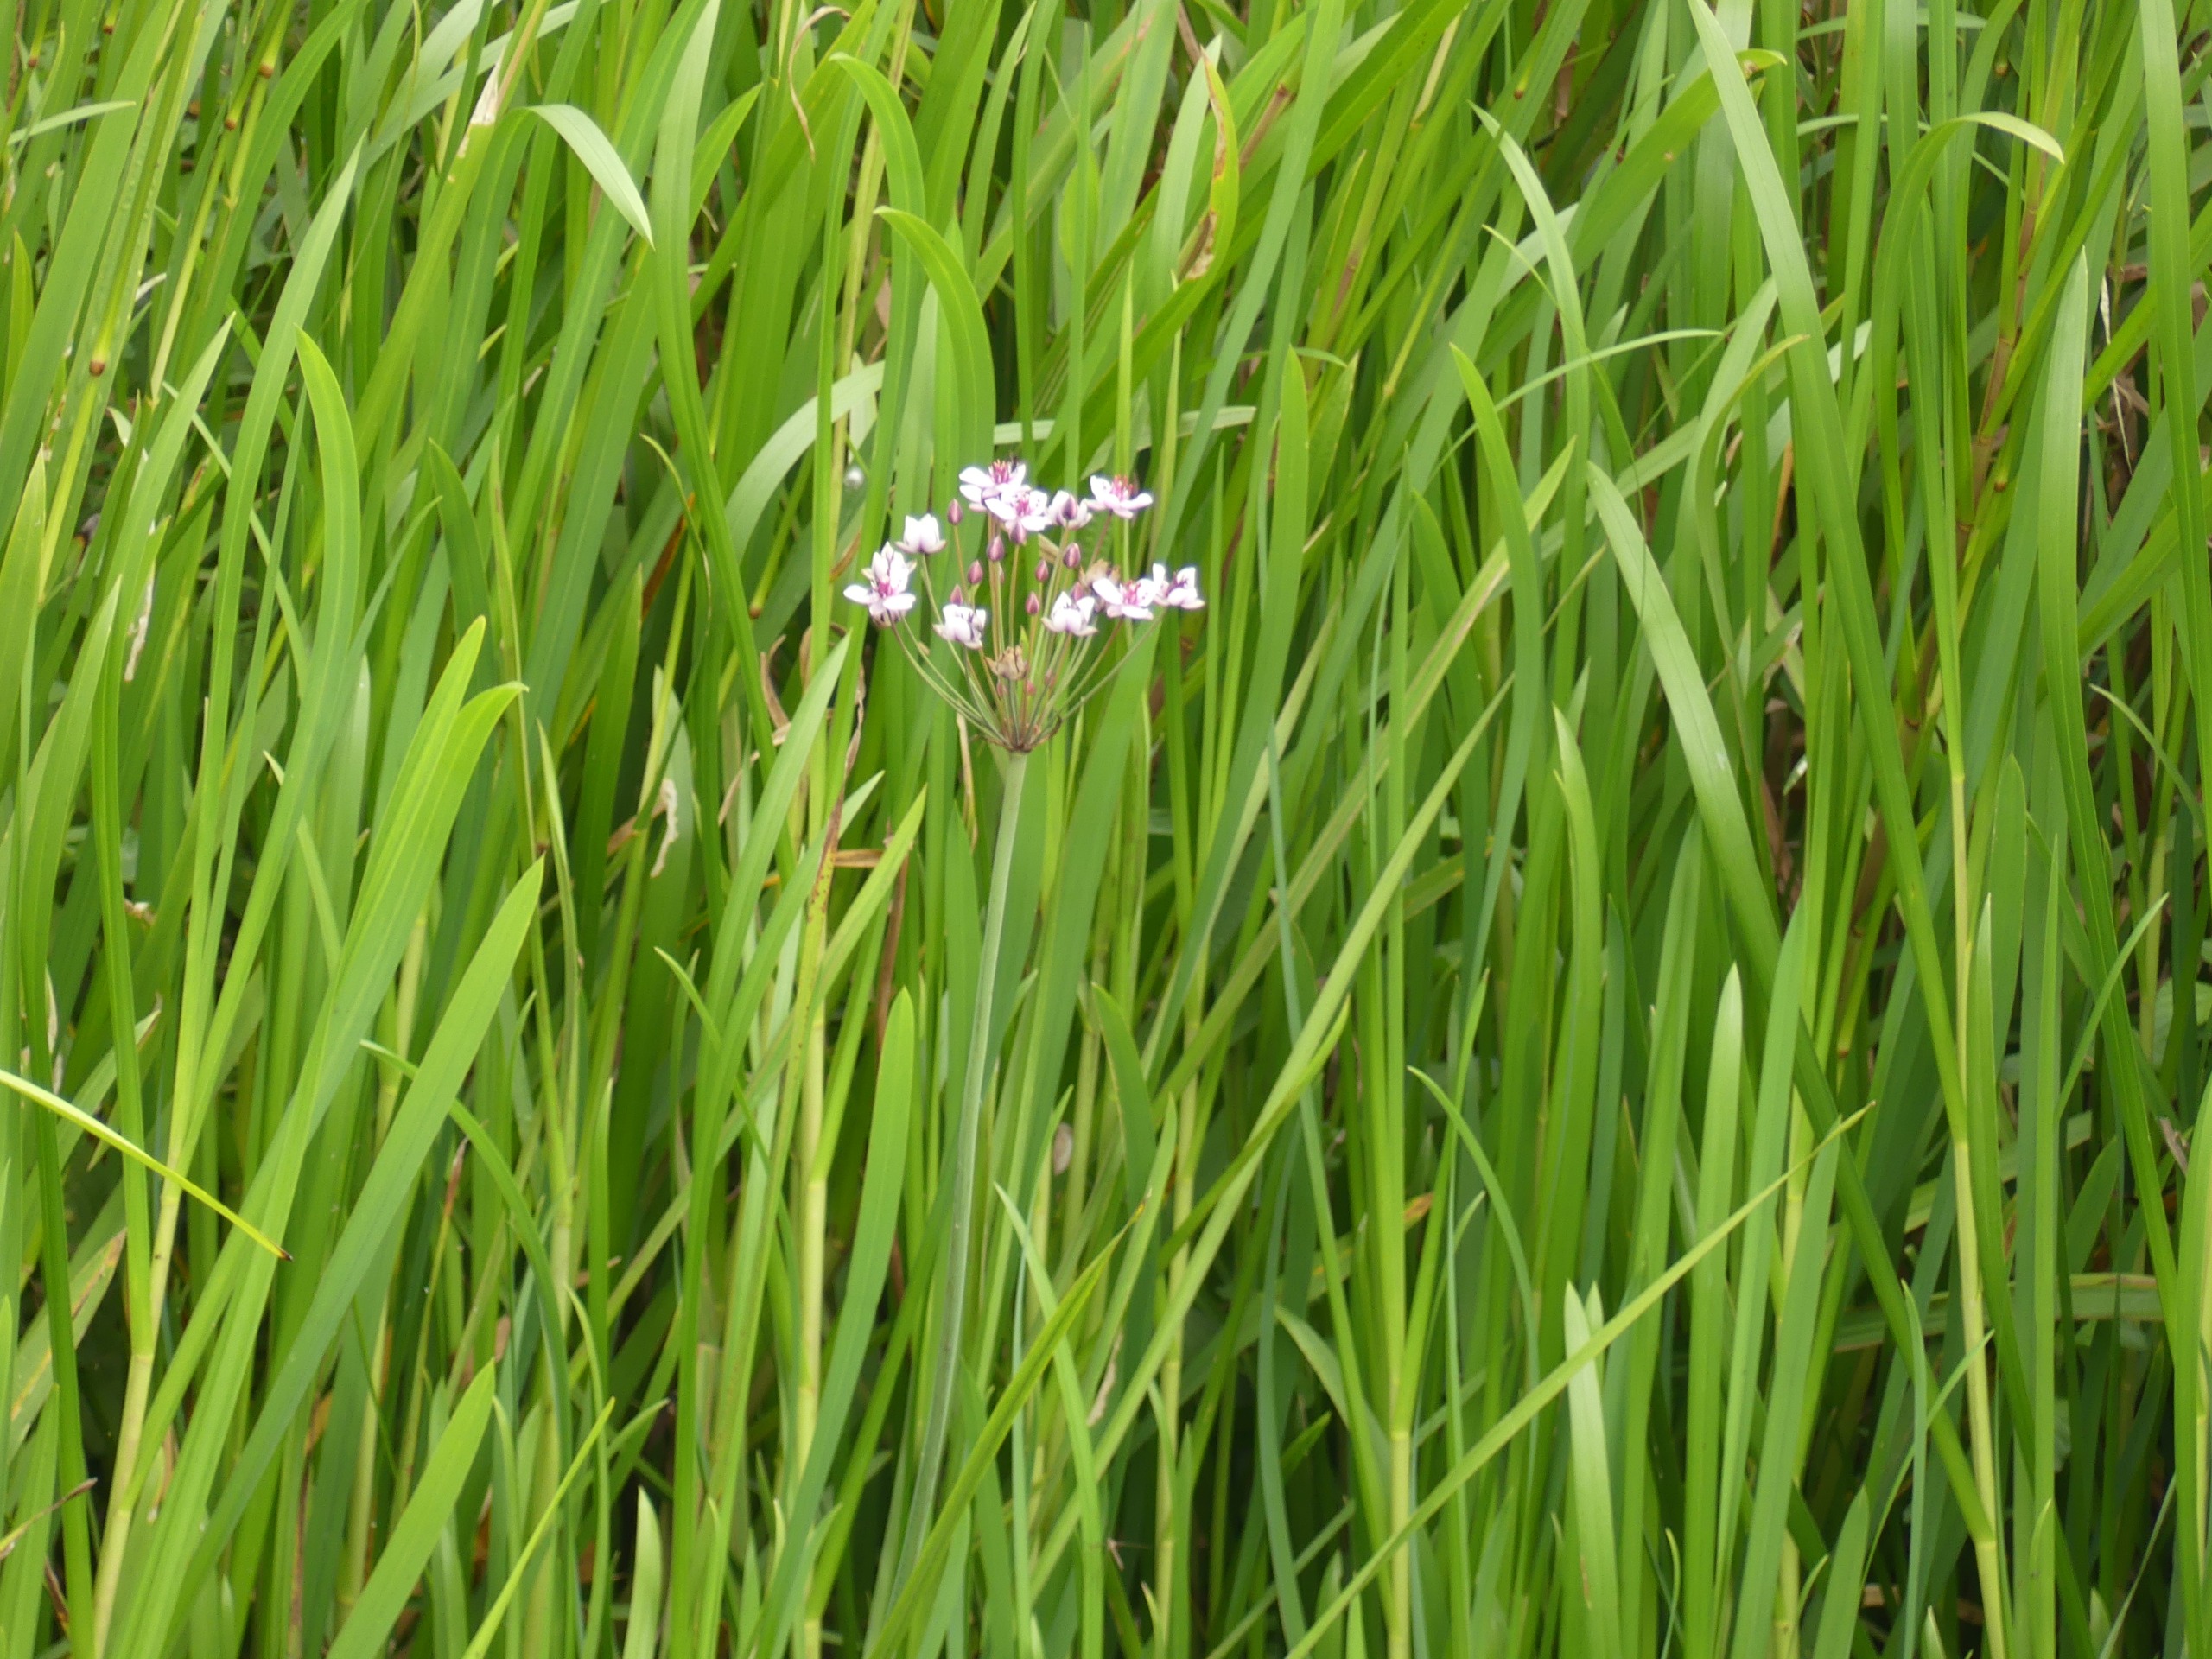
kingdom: Plantae
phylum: Tracheophyta
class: Liliopsida
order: Alismatales
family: Butomaceae
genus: Butomus
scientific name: Butomus umbellatus
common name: Brudelys
